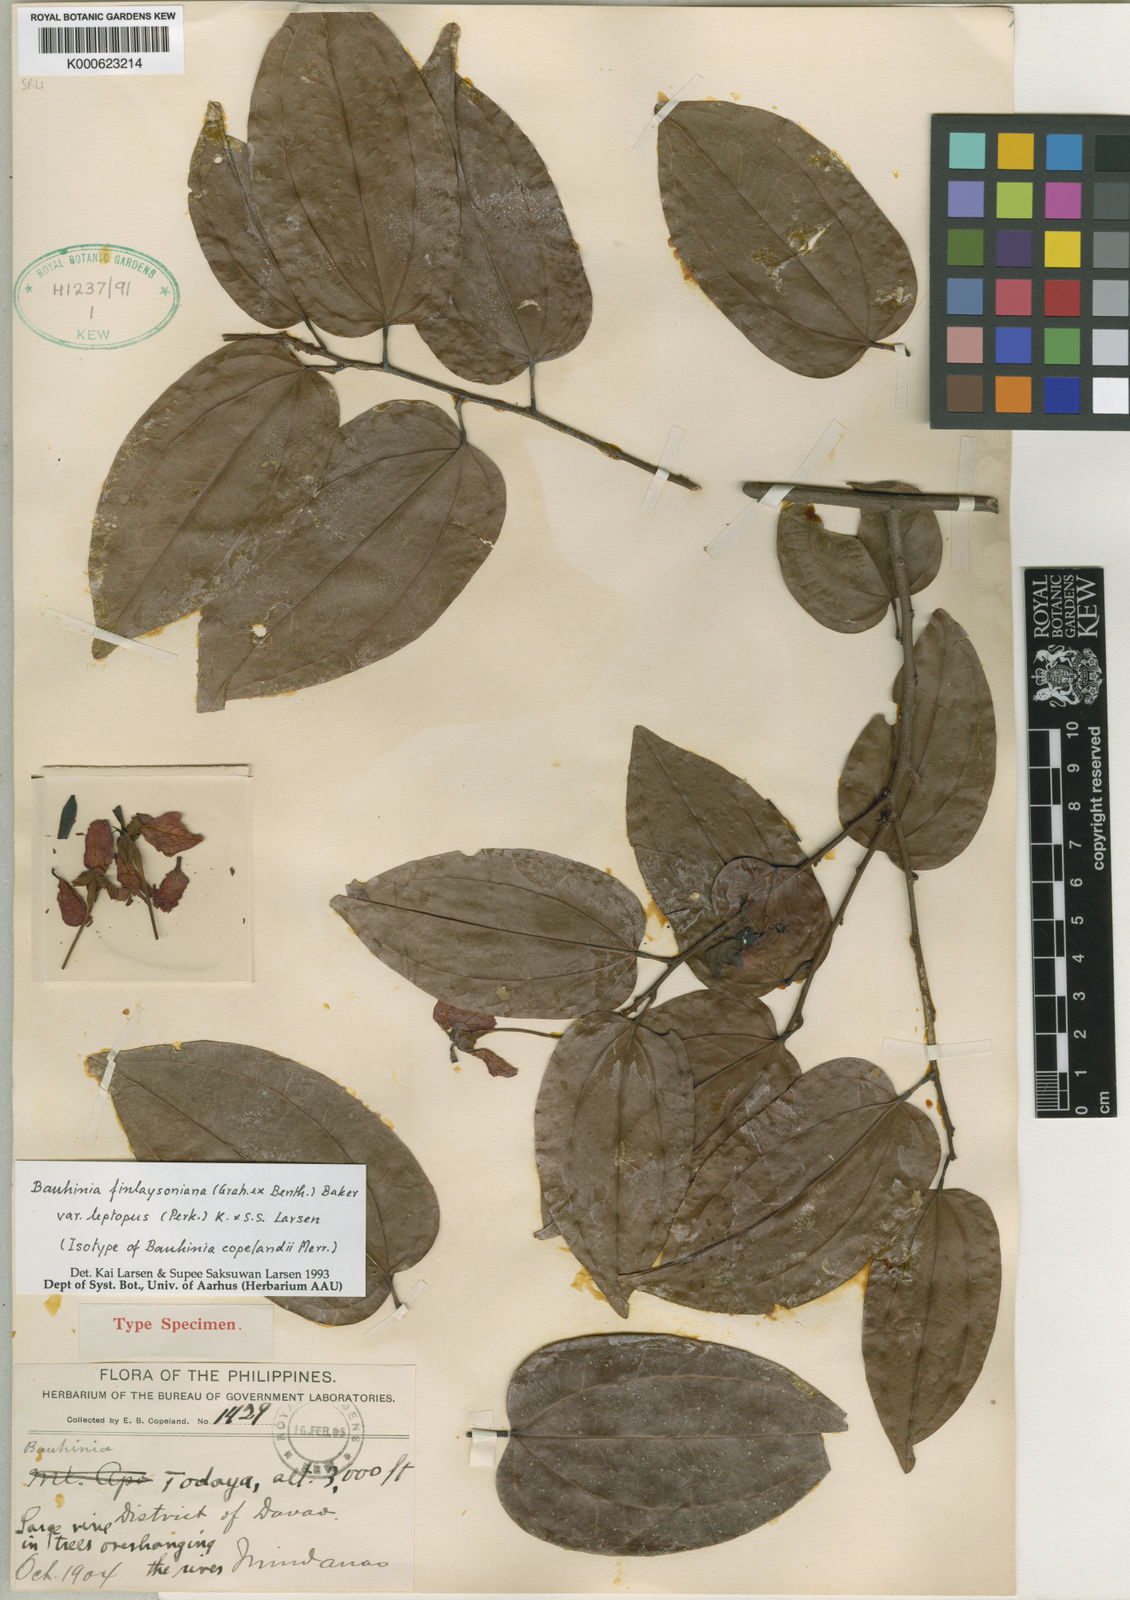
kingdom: Plantae
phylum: Tracheophyta
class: Magnoliopsida
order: Fabales
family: Fabaceae
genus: Phanera
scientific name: Phanera finlaysoniana
